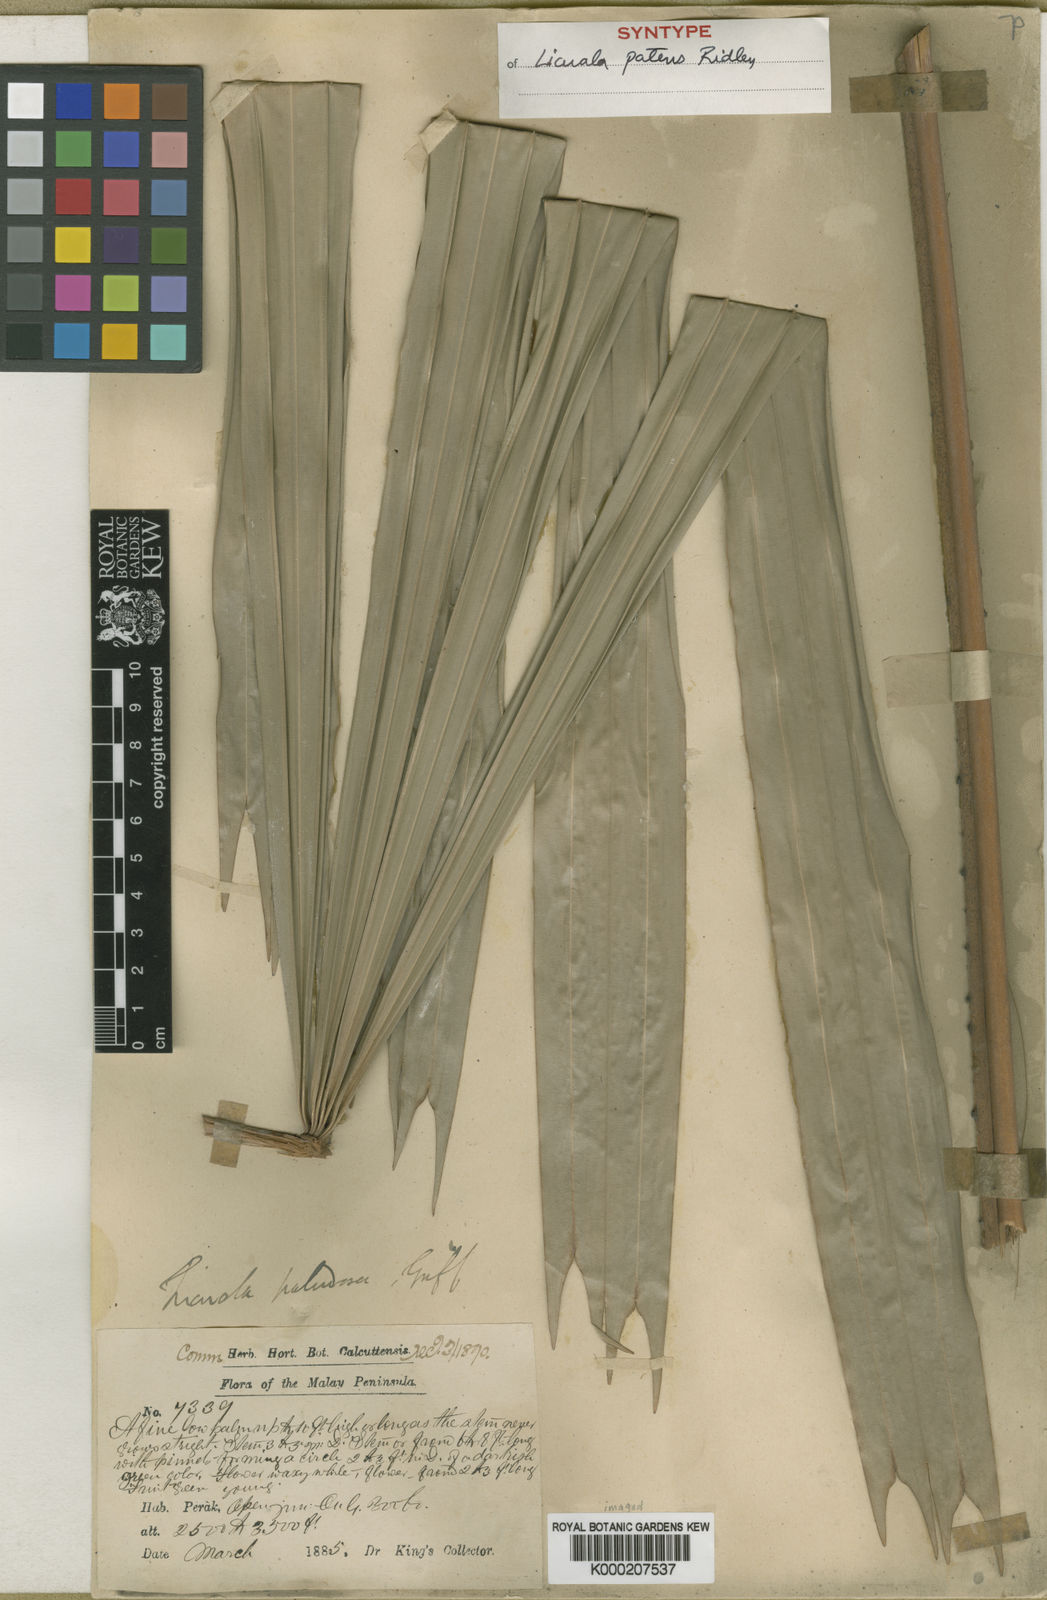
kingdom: Plantae
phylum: Tracheophyta
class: Liliopsida
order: Arecales
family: Arecaceae
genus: Licuala
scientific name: Licuala patens
